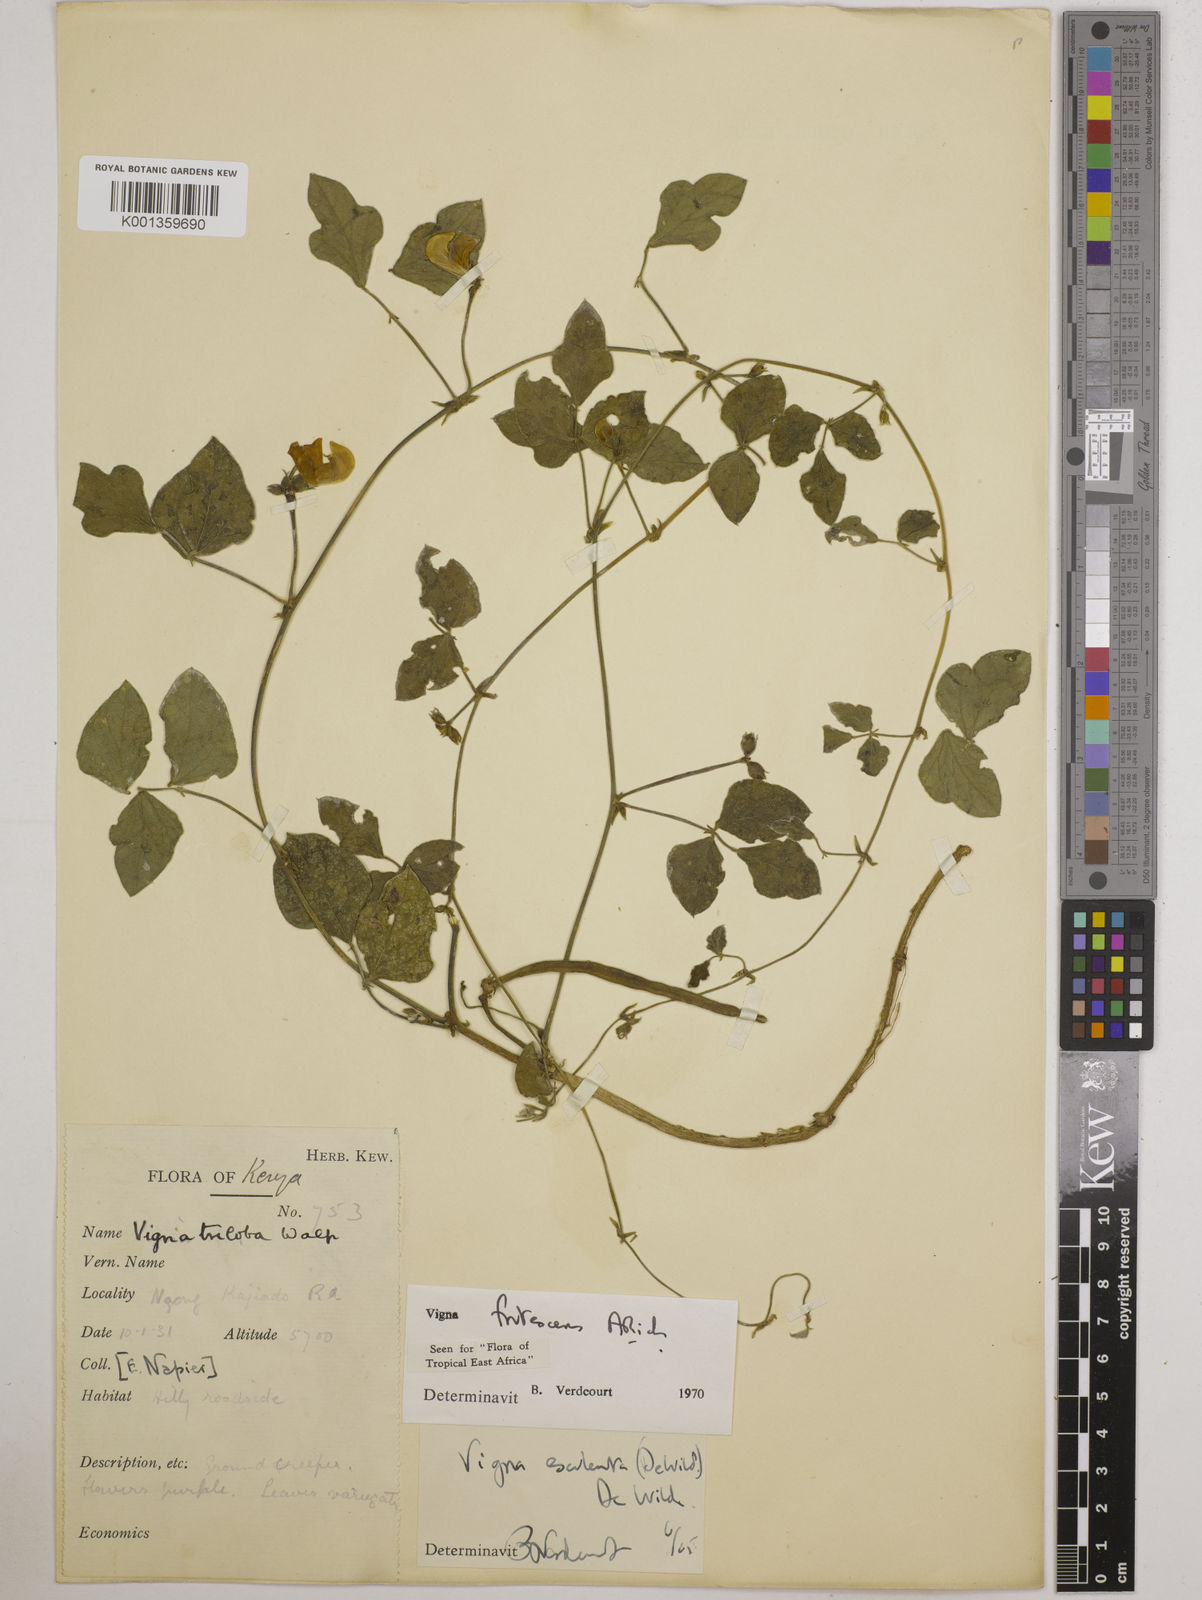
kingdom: Plantae
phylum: Tracheophyta
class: Magnoliopsida
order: Fabales
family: Fabaceae
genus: Vigna
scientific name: Vigna frutescens
